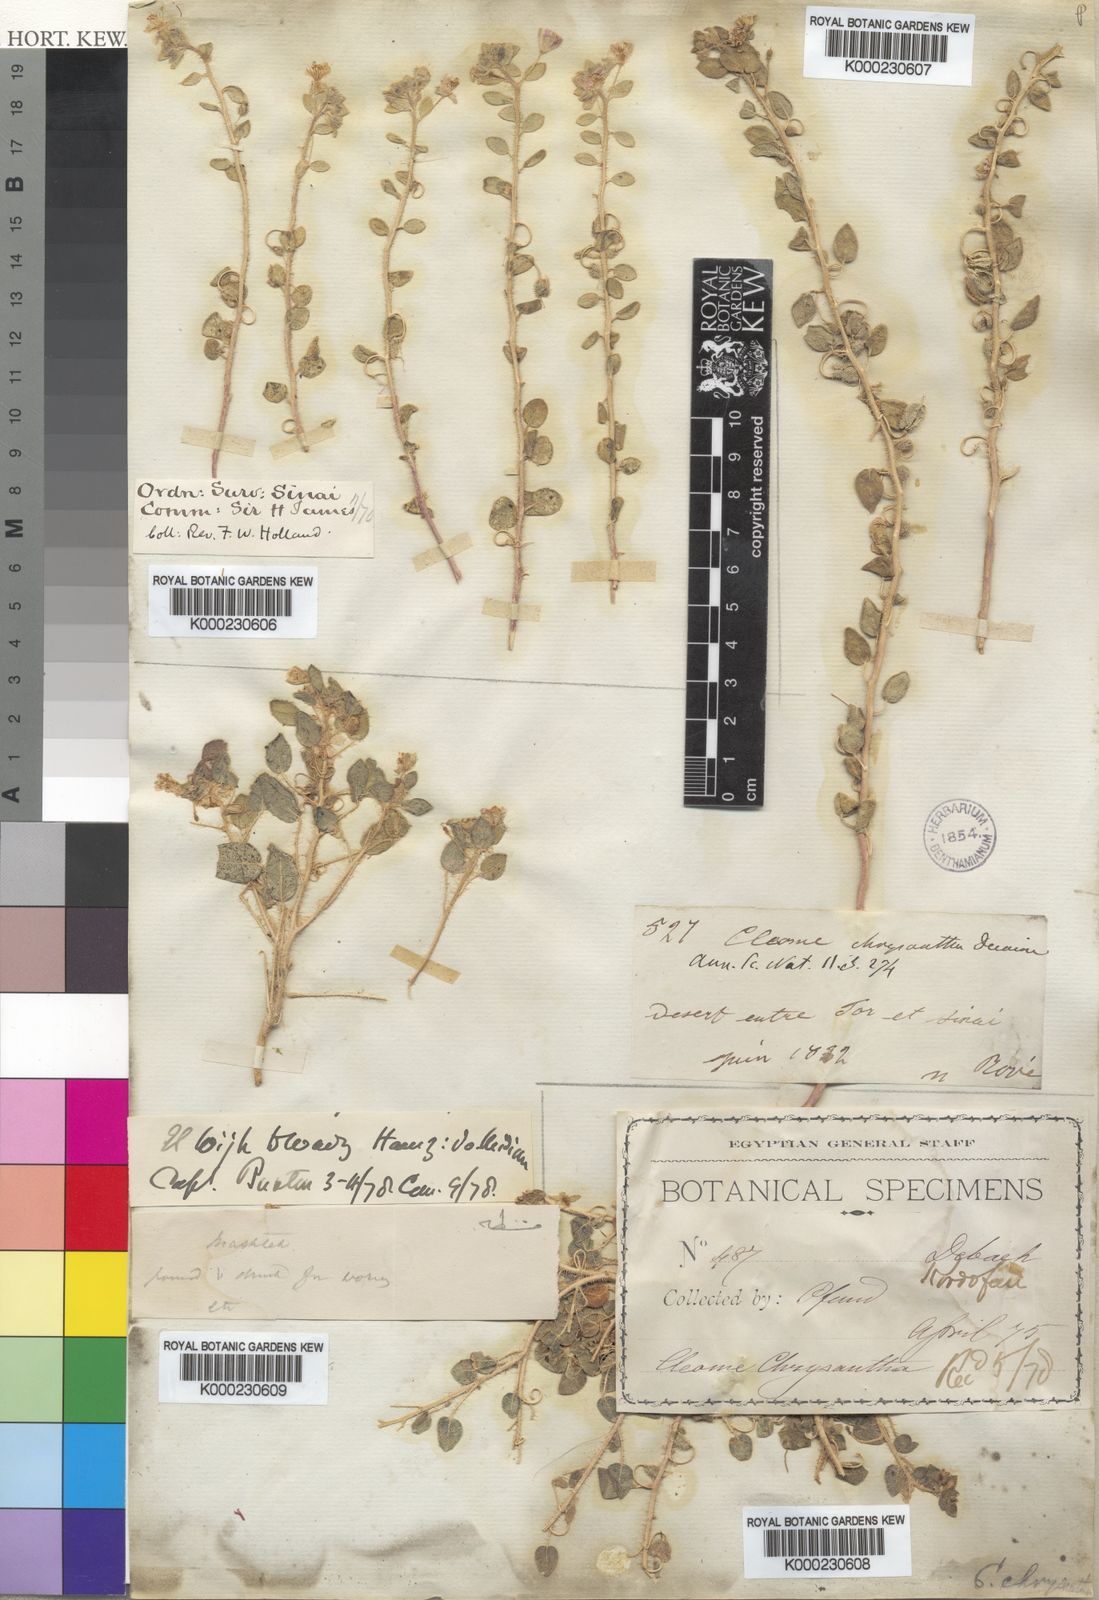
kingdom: Plantae
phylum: Tracheophyta
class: Magnoliopsida
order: Brassicales
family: Cleomaceae
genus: Thulinella
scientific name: Thulinella chrysantha
